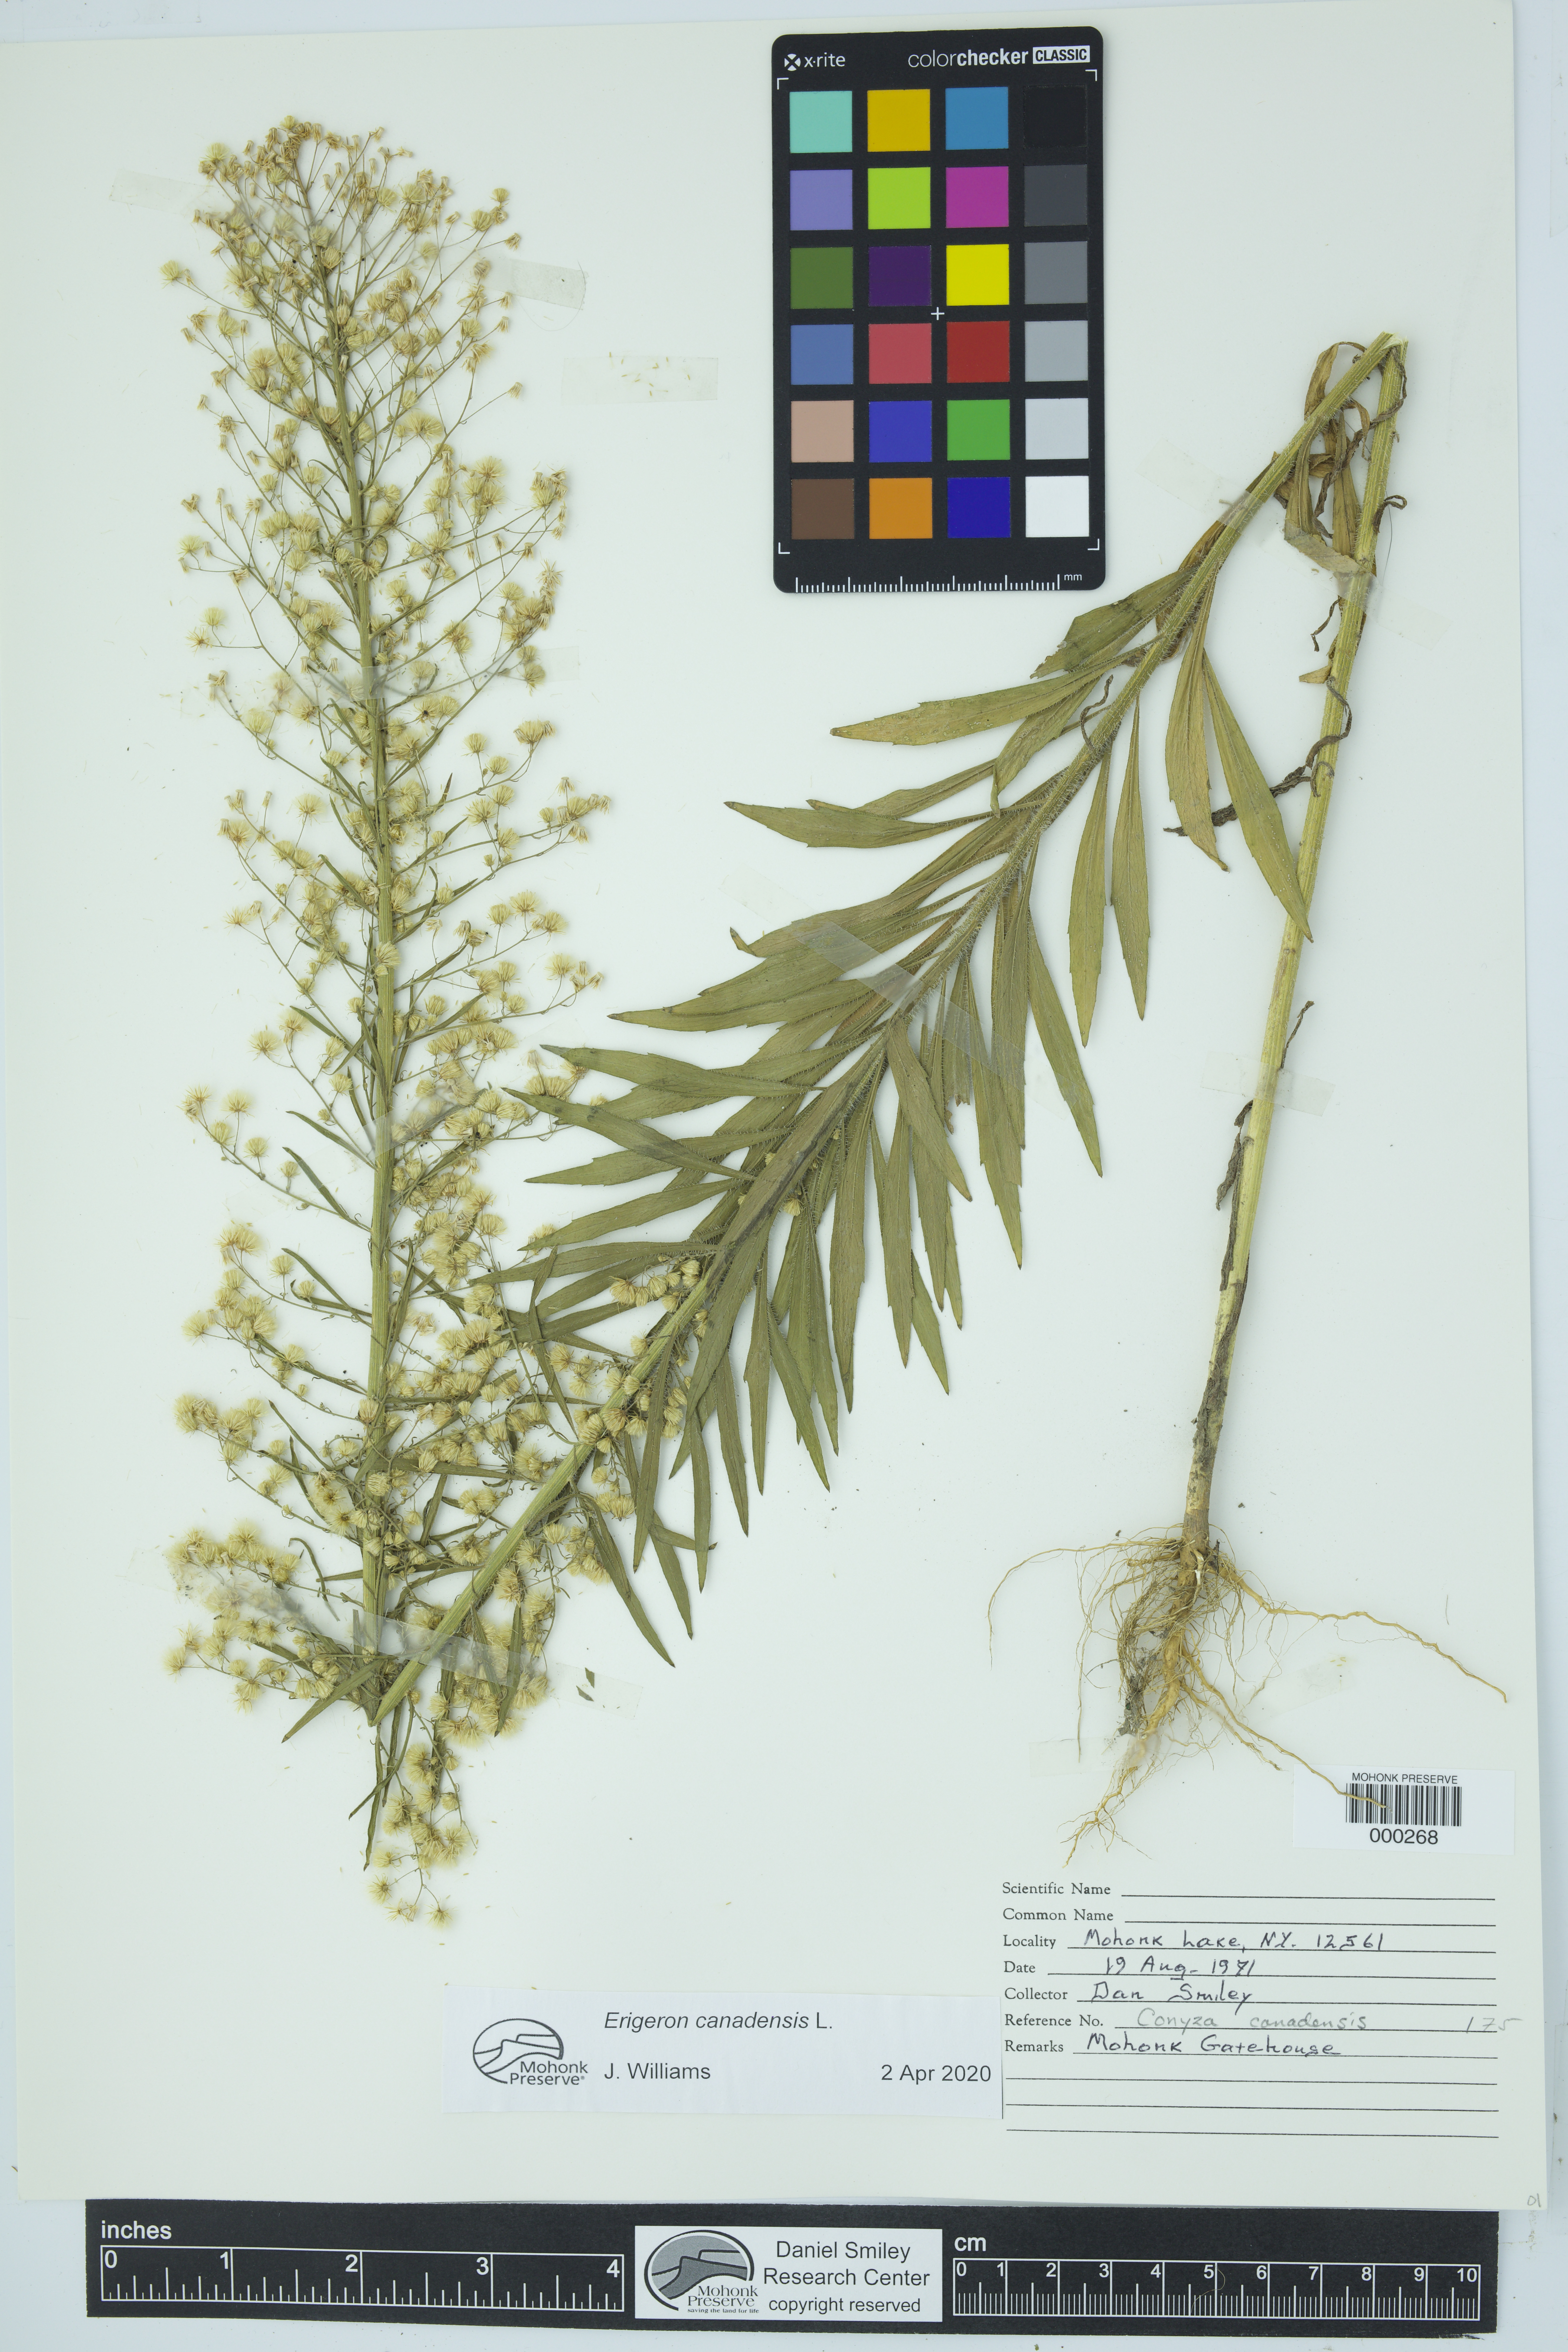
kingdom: Plantae
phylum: Tracheophyta
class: Magnoliopsida
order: Asterales
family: Asteraceae
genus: Erigeron
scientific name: Erigeron canadensis
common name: Canadian fleabane
